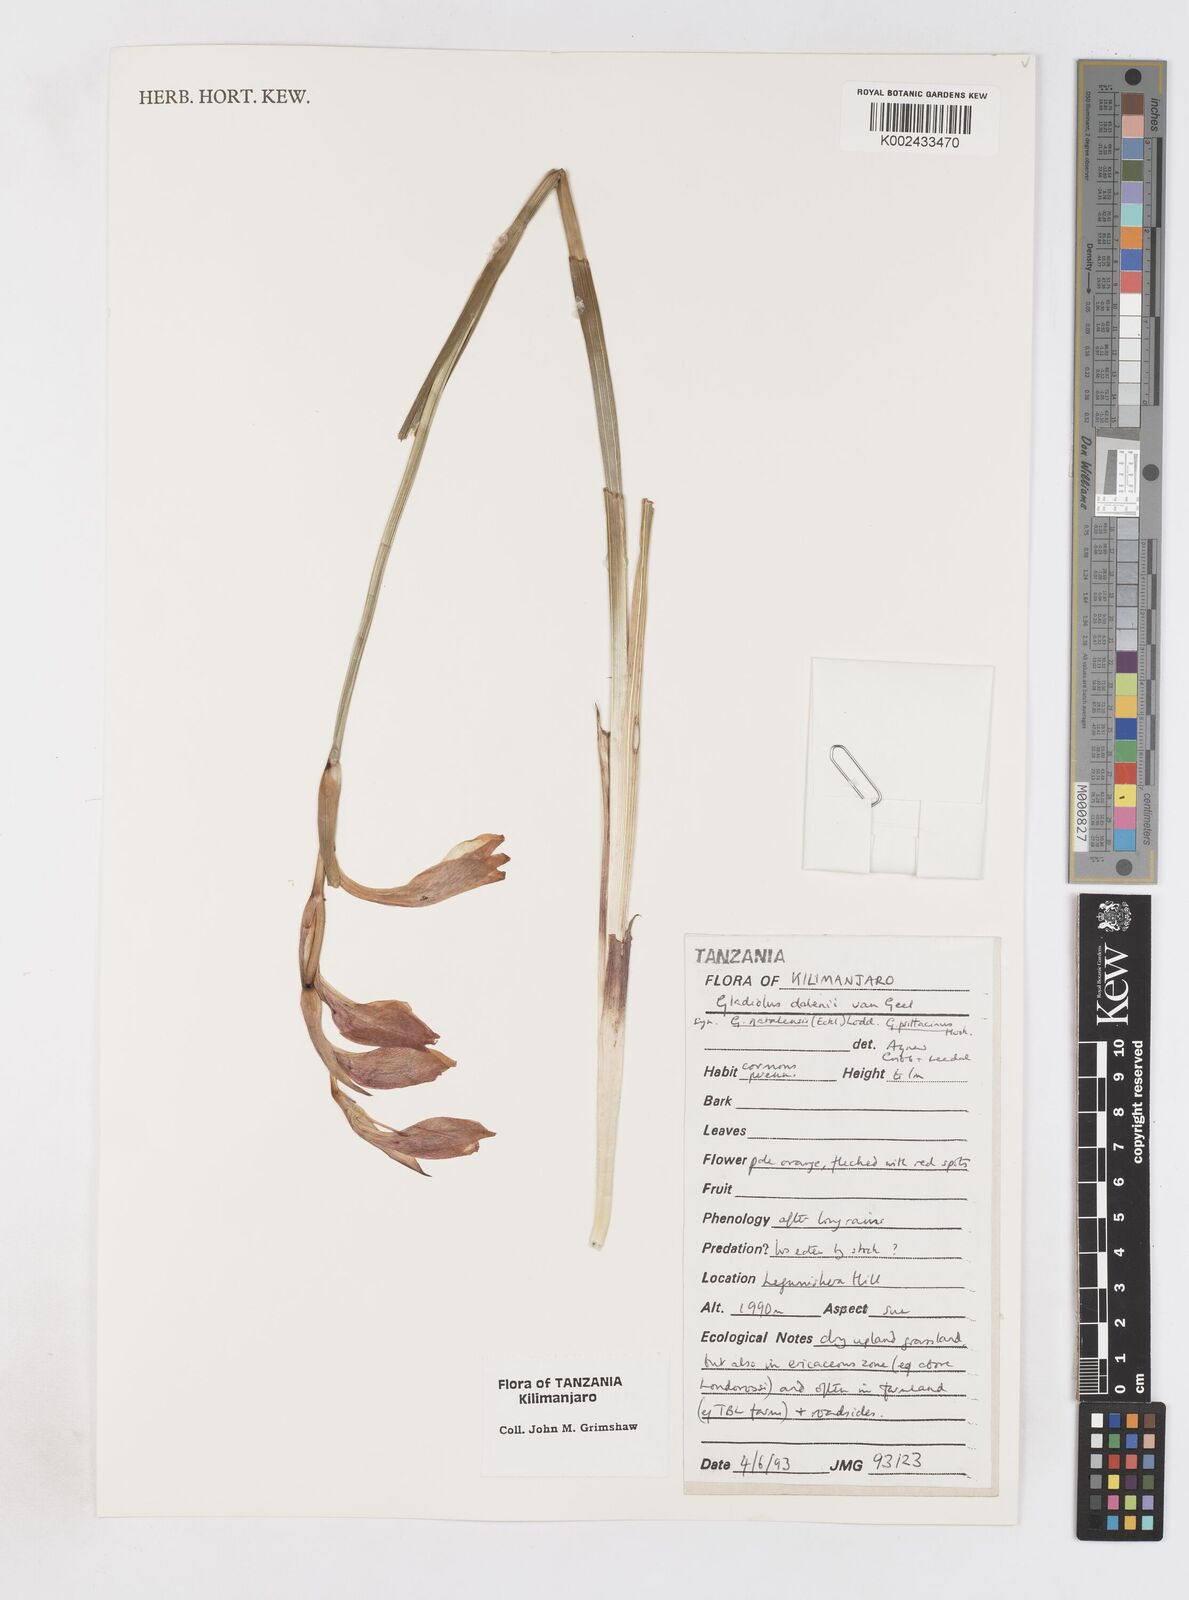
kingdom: Plantae
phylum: Tracheophyta
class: Liliopsida
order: Asparagales
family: Iridaceae
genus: Gladiolus
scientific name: Gladiolus dalenii
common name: Cornflag
